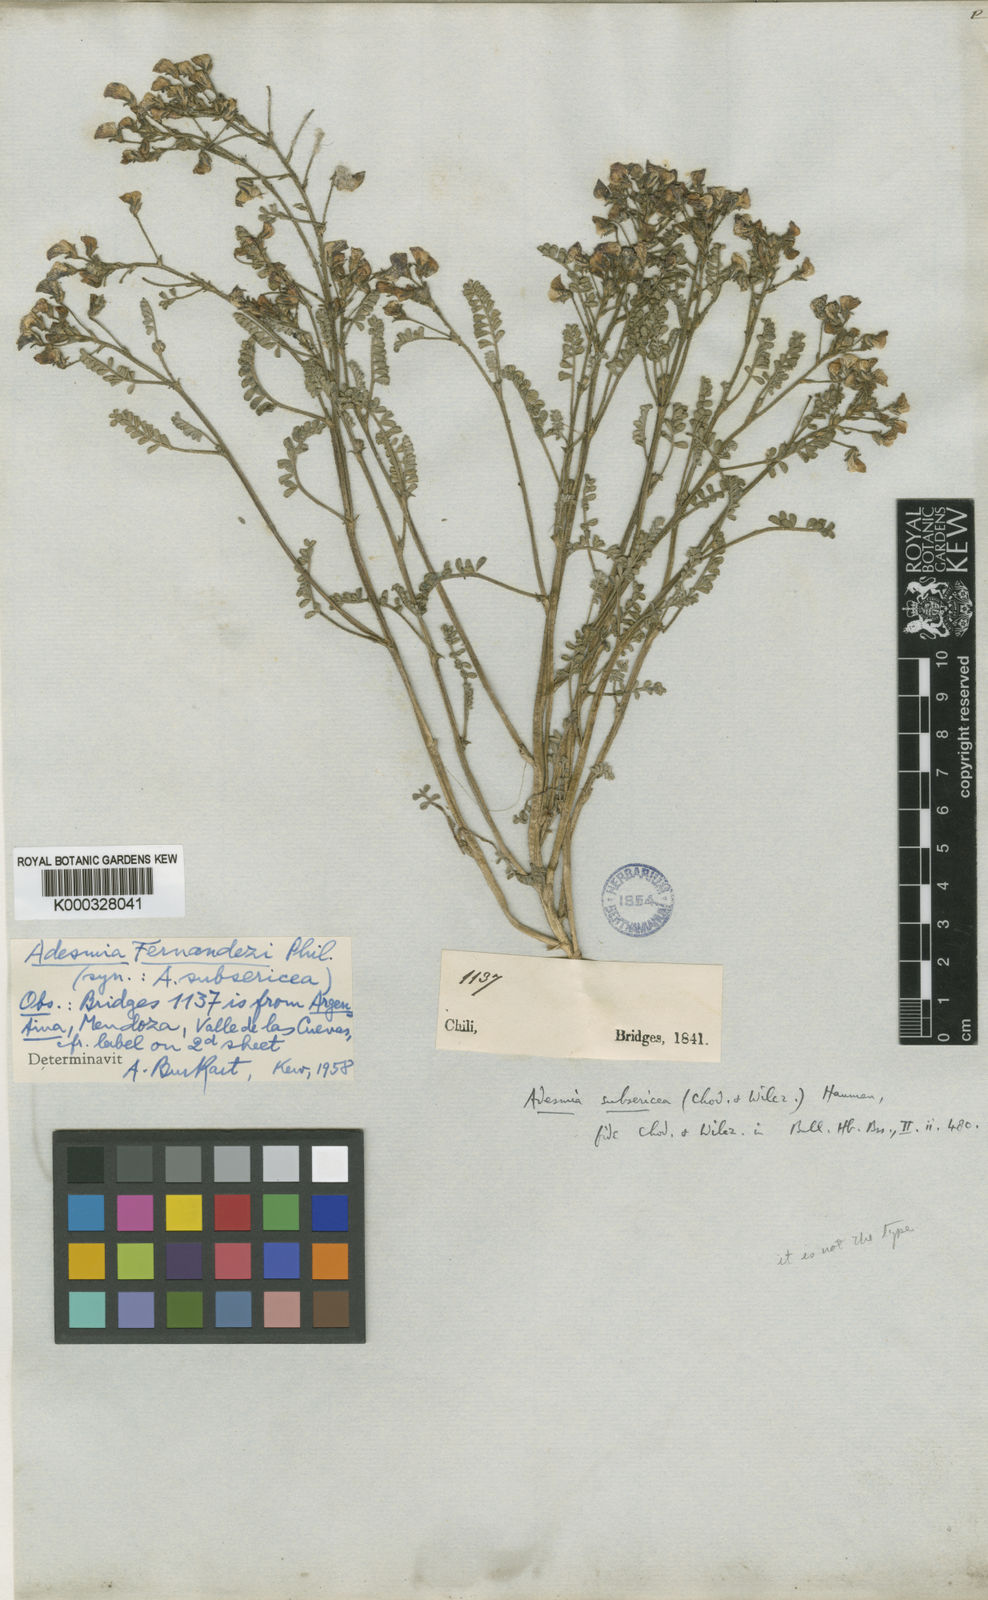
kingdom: Plantae
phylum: Tracheophyta
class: Magnoliopsida
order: Fabales
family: Fabaceae
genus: Adesmia
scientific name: Adesmia corymbosa
